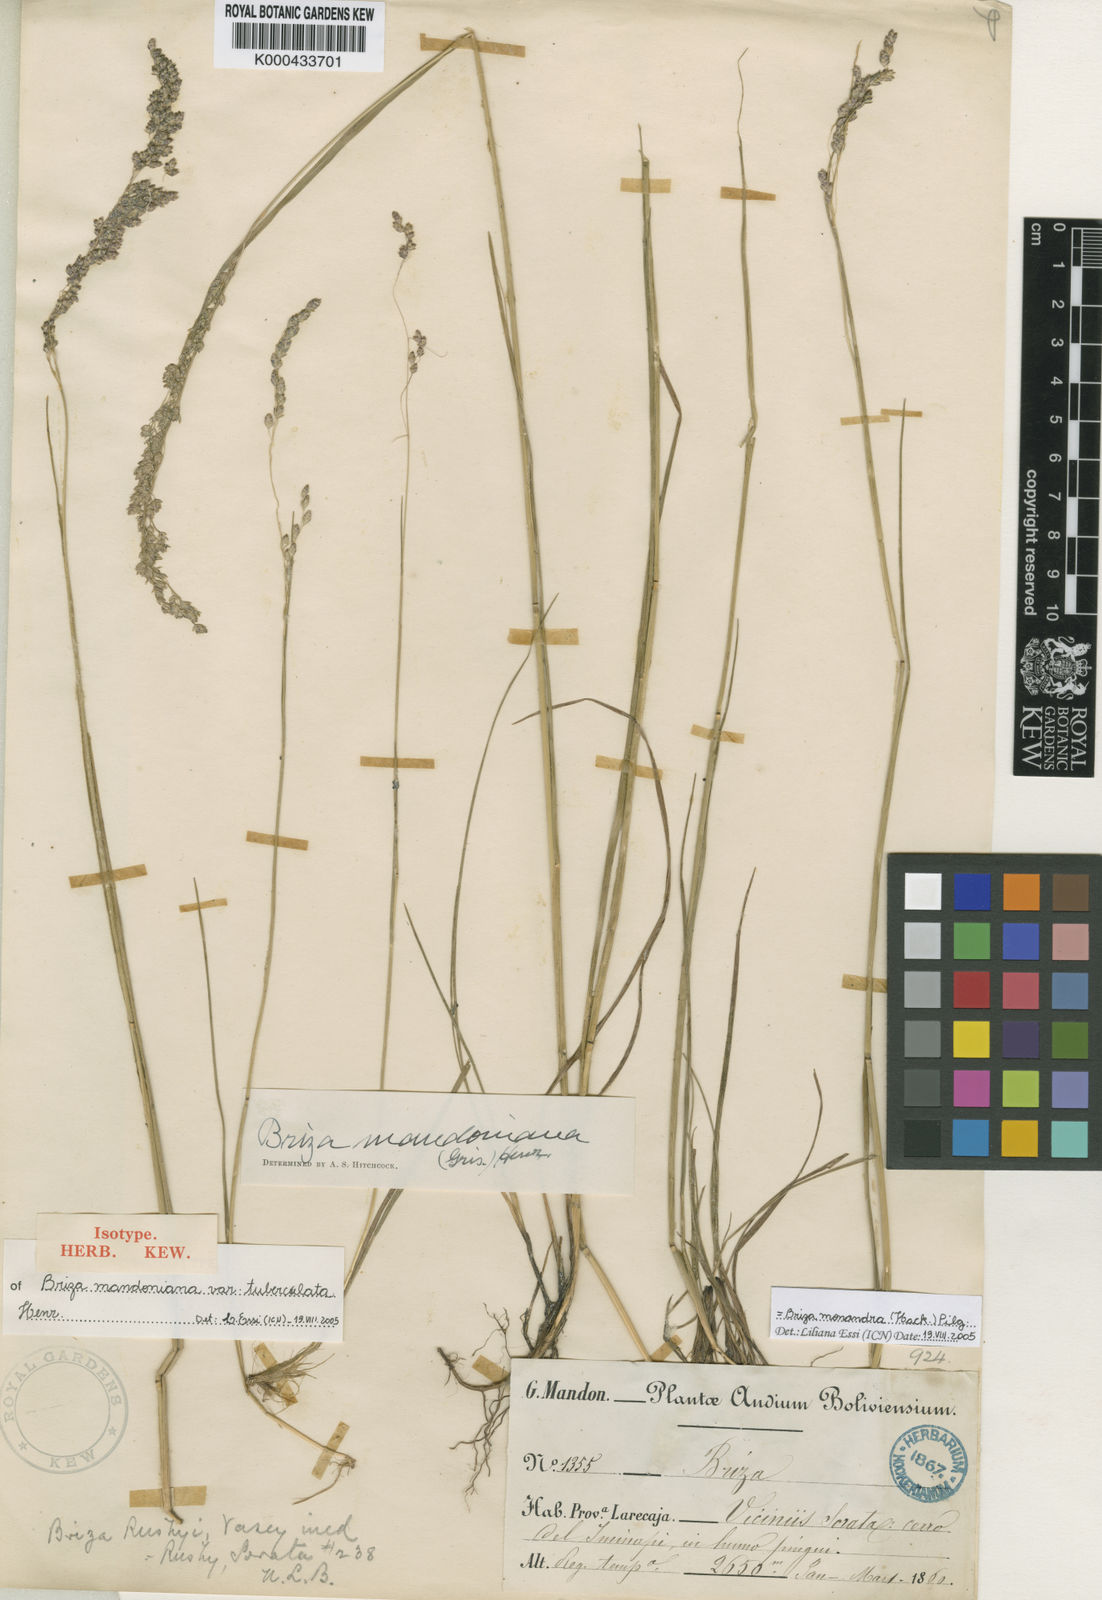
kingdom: Plantae
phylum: Tracheophyta
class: Liliopsida
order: Poales
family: Poaceae
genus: Poidium
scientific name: Poidium monandrum
